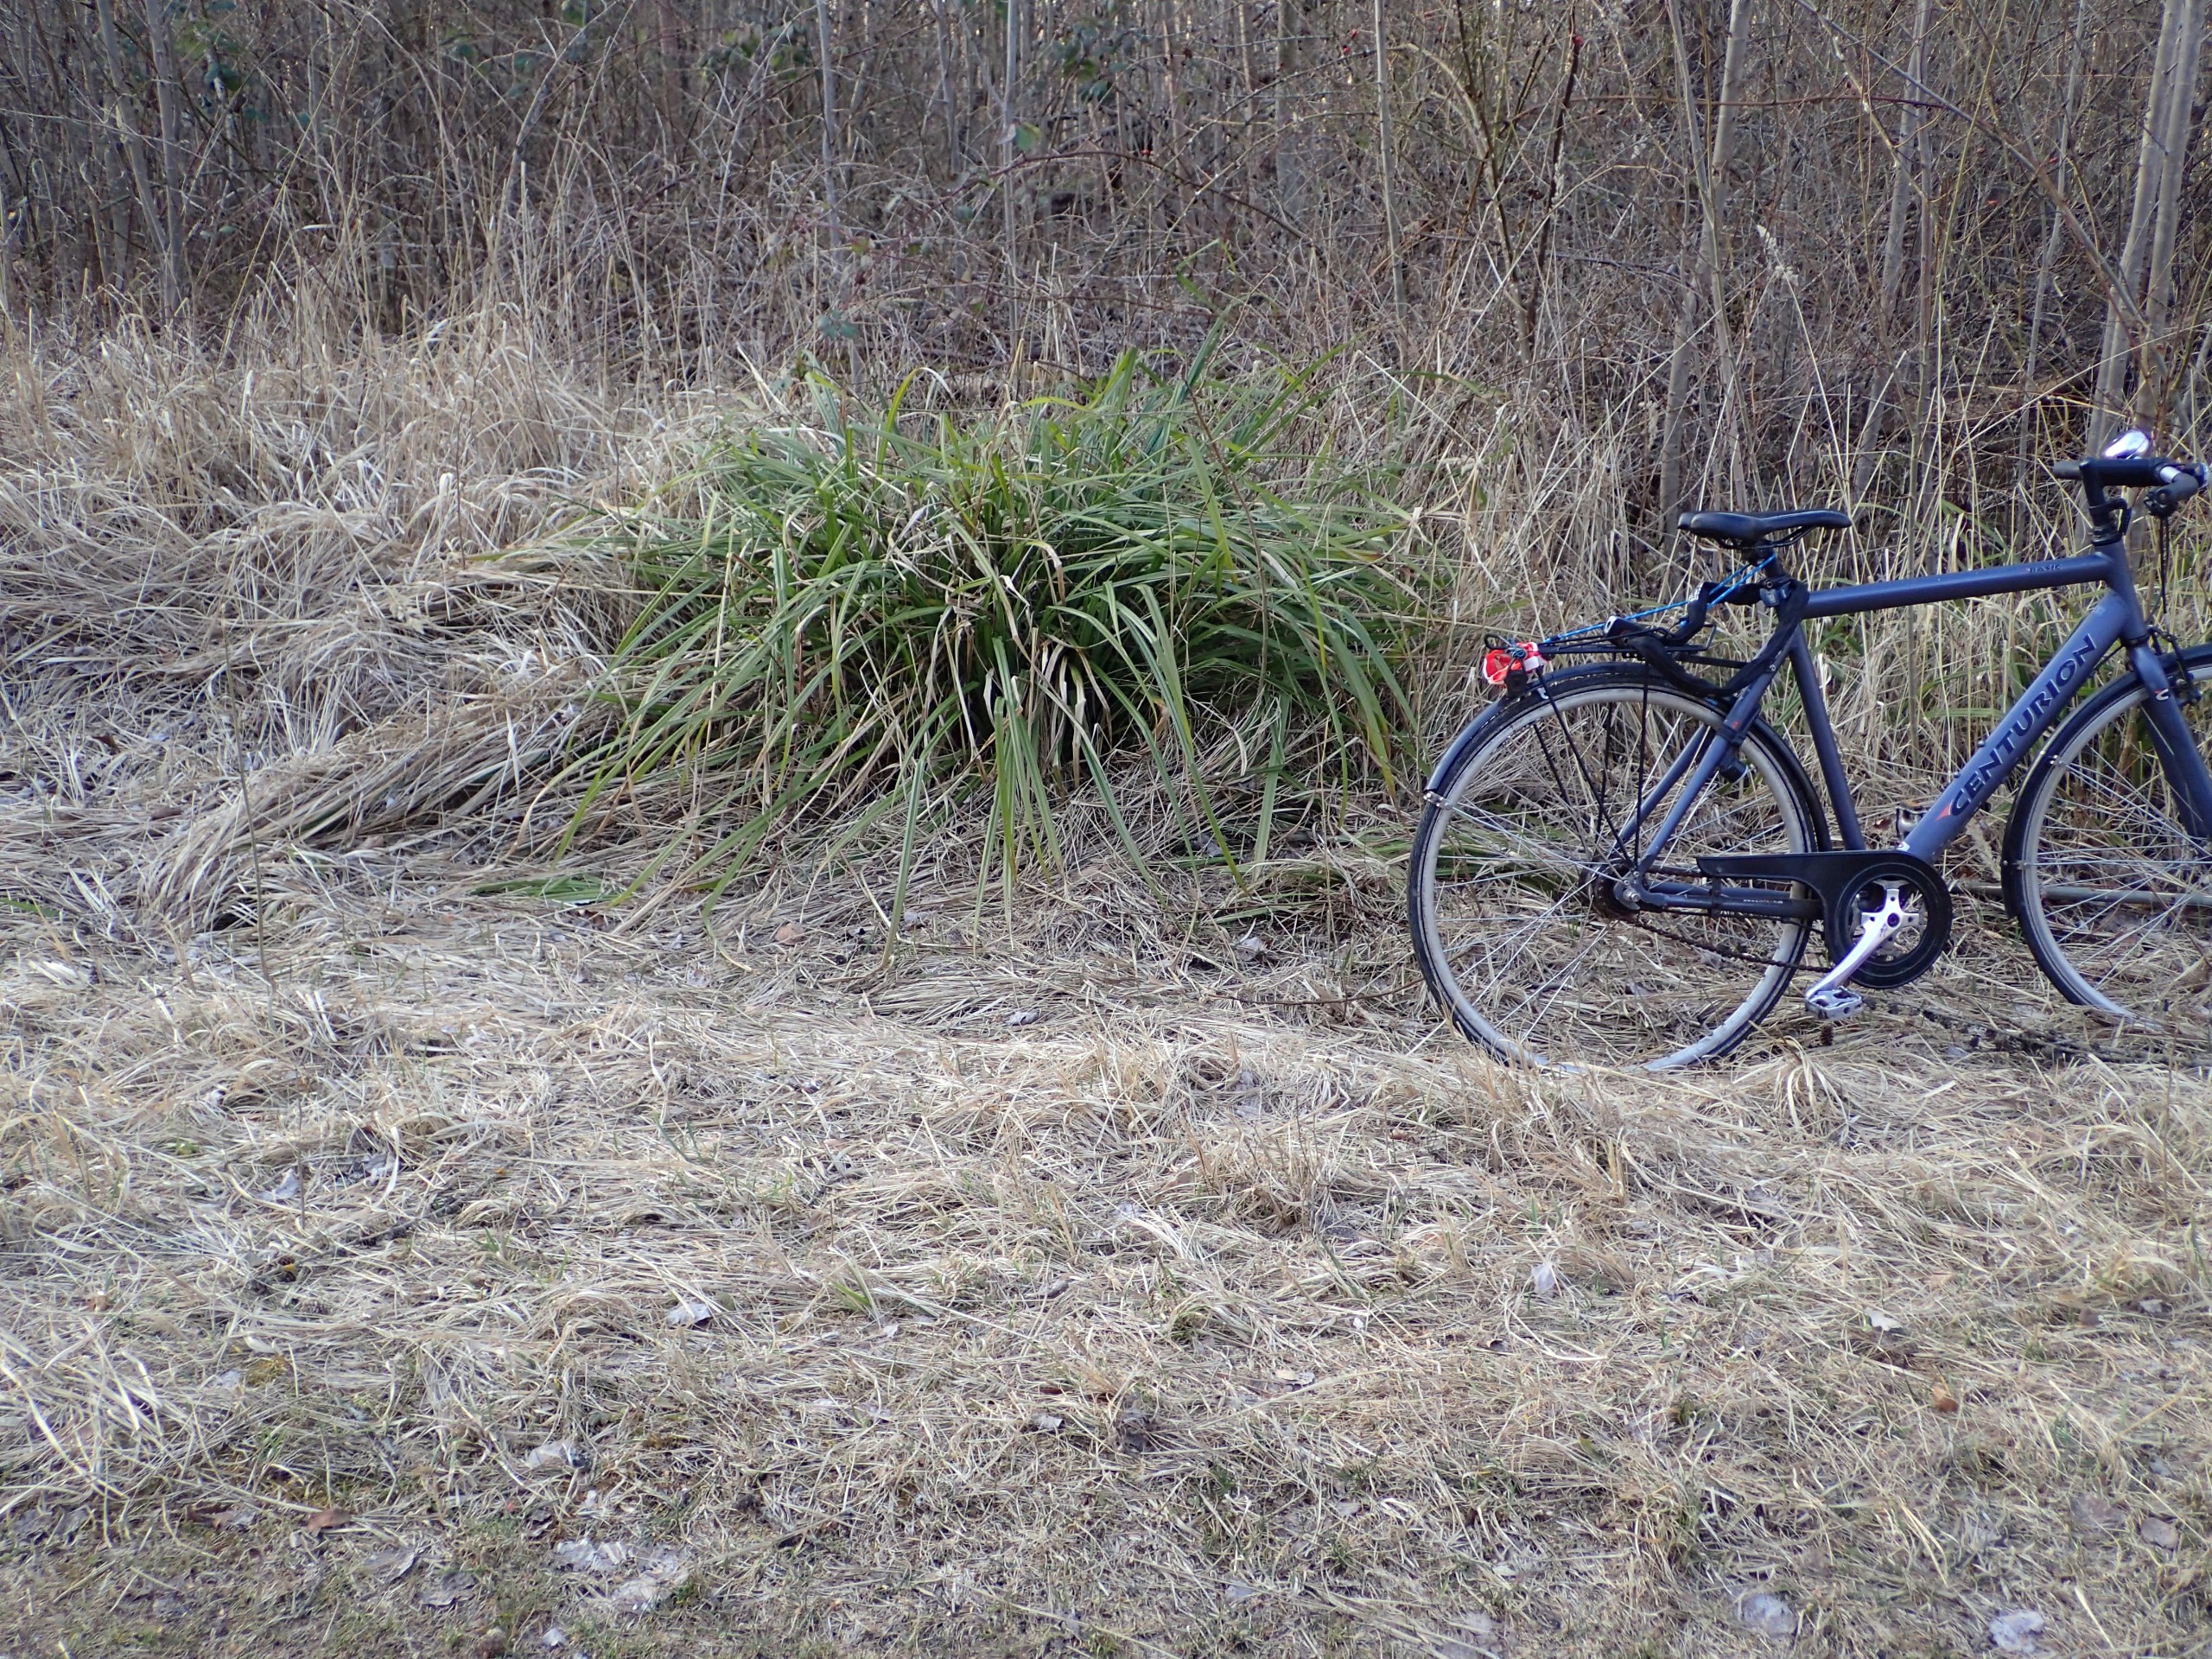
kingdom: Plantae
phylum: Tracheophyta
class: Liliopsida
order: Poales
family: Cyperaceae
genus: Carex
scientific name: Carex pendula
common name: Kæmpe-star
